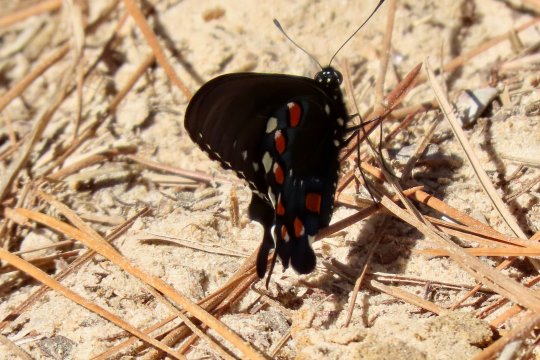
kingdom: Animalia
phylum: Arthropoda
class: Insecta
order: Lepidoptera
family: Papilionidae
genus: Battus
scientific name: Battus philenor
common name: Pipevine Swallowtail
